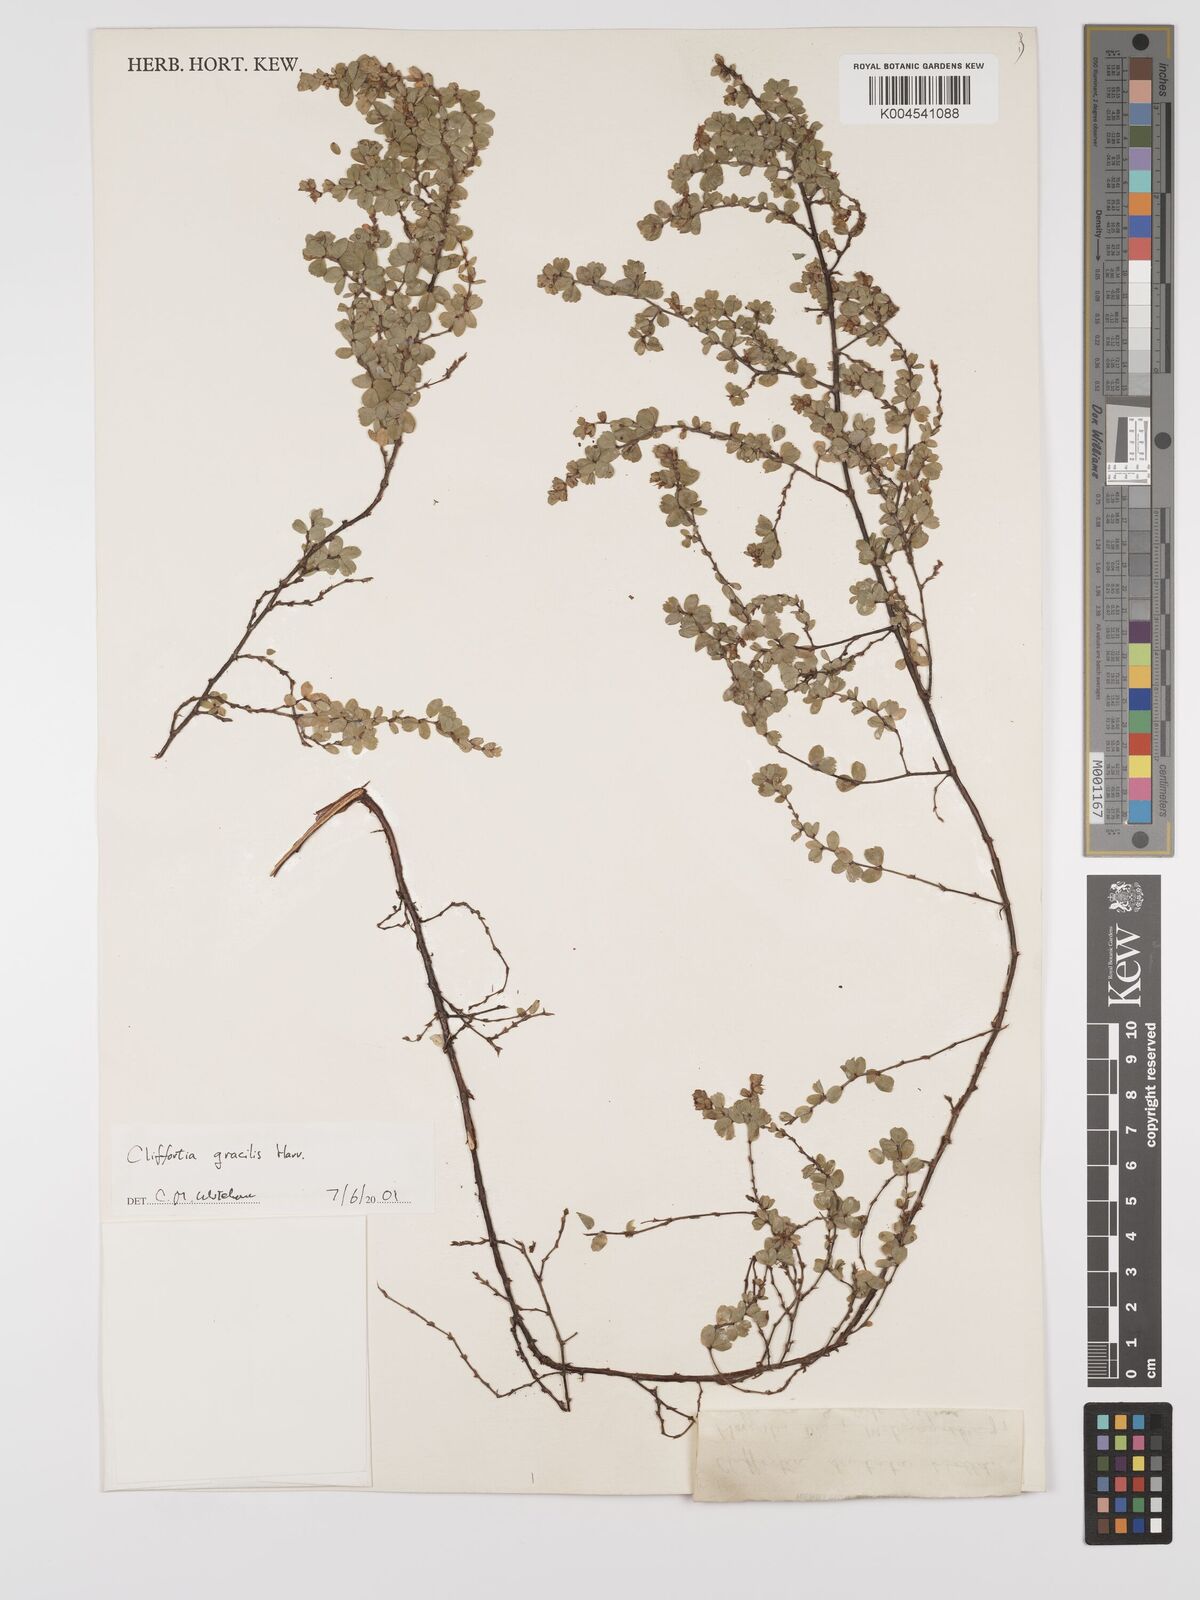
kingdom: Plantae
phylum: Tracheophyta
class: Magnoliopsida
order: Rosales
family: Rosaceae
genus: Cliffortia
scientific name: Cliffortia dentata
